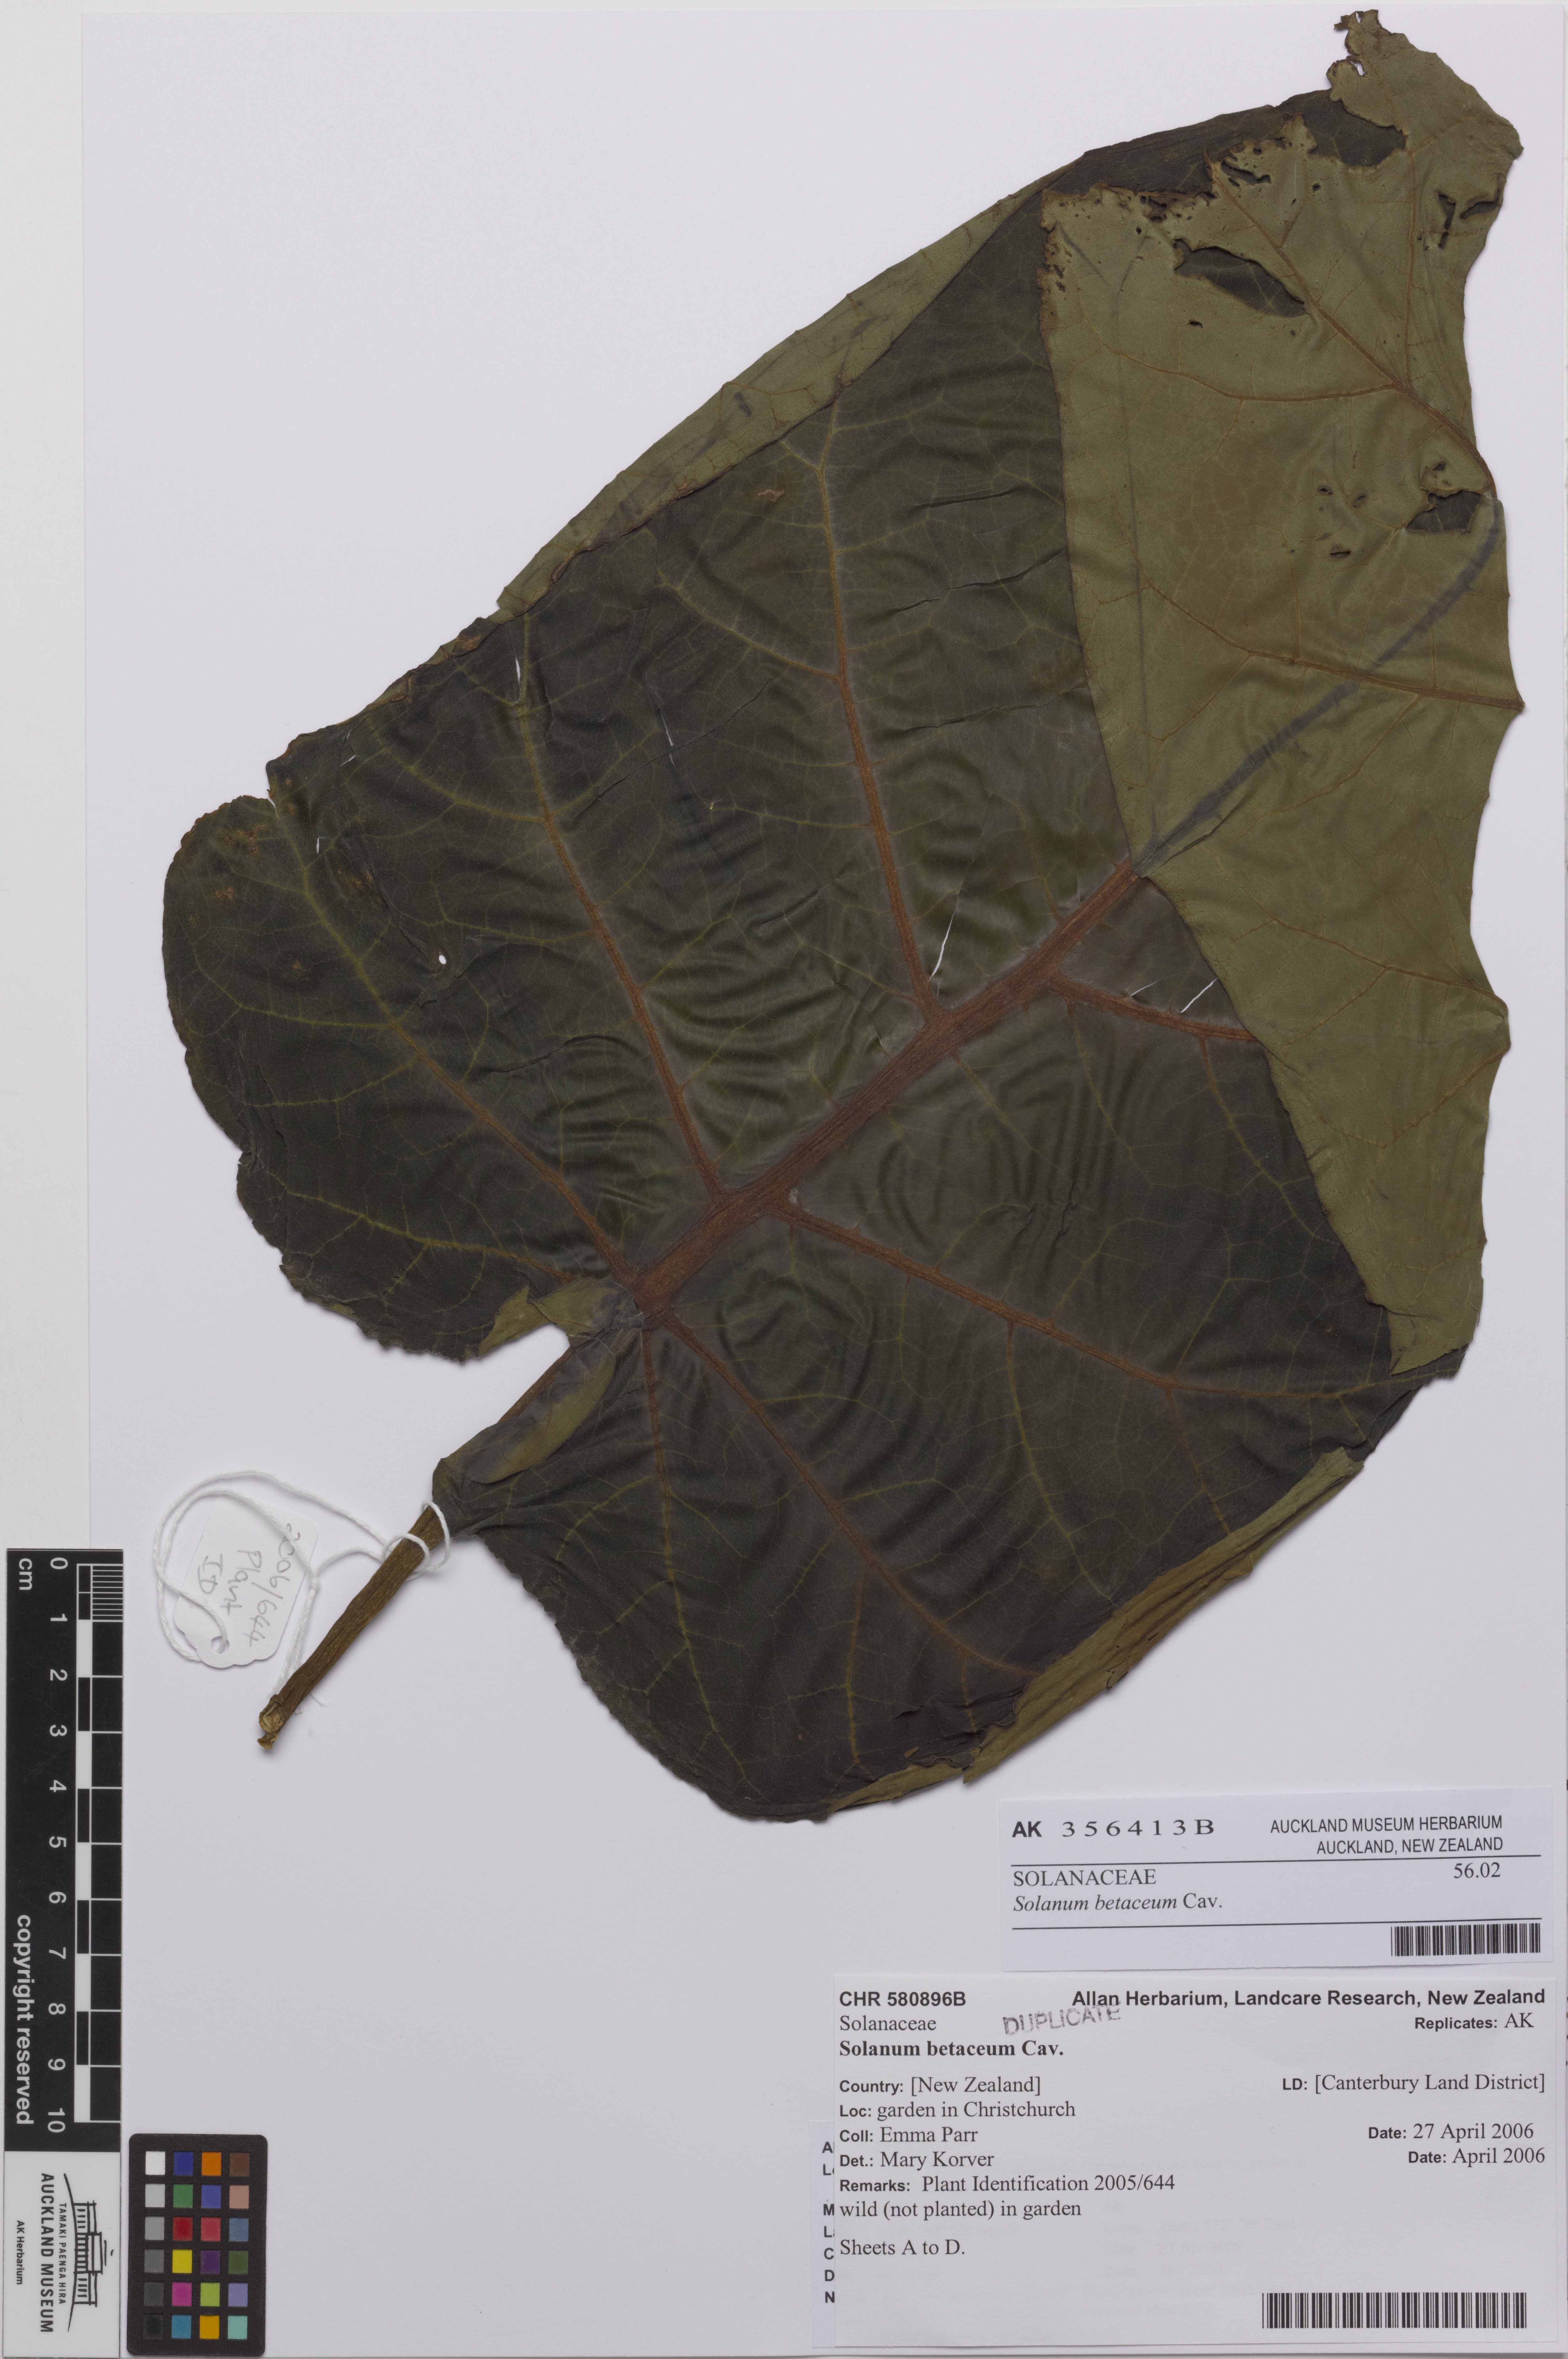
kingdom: Plantae
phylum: Tracheophyta
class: Magnoliopsida
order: Solanales
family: Solanaceae
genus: Solanum
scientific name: Solanum betaceum
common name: Tamarillo
